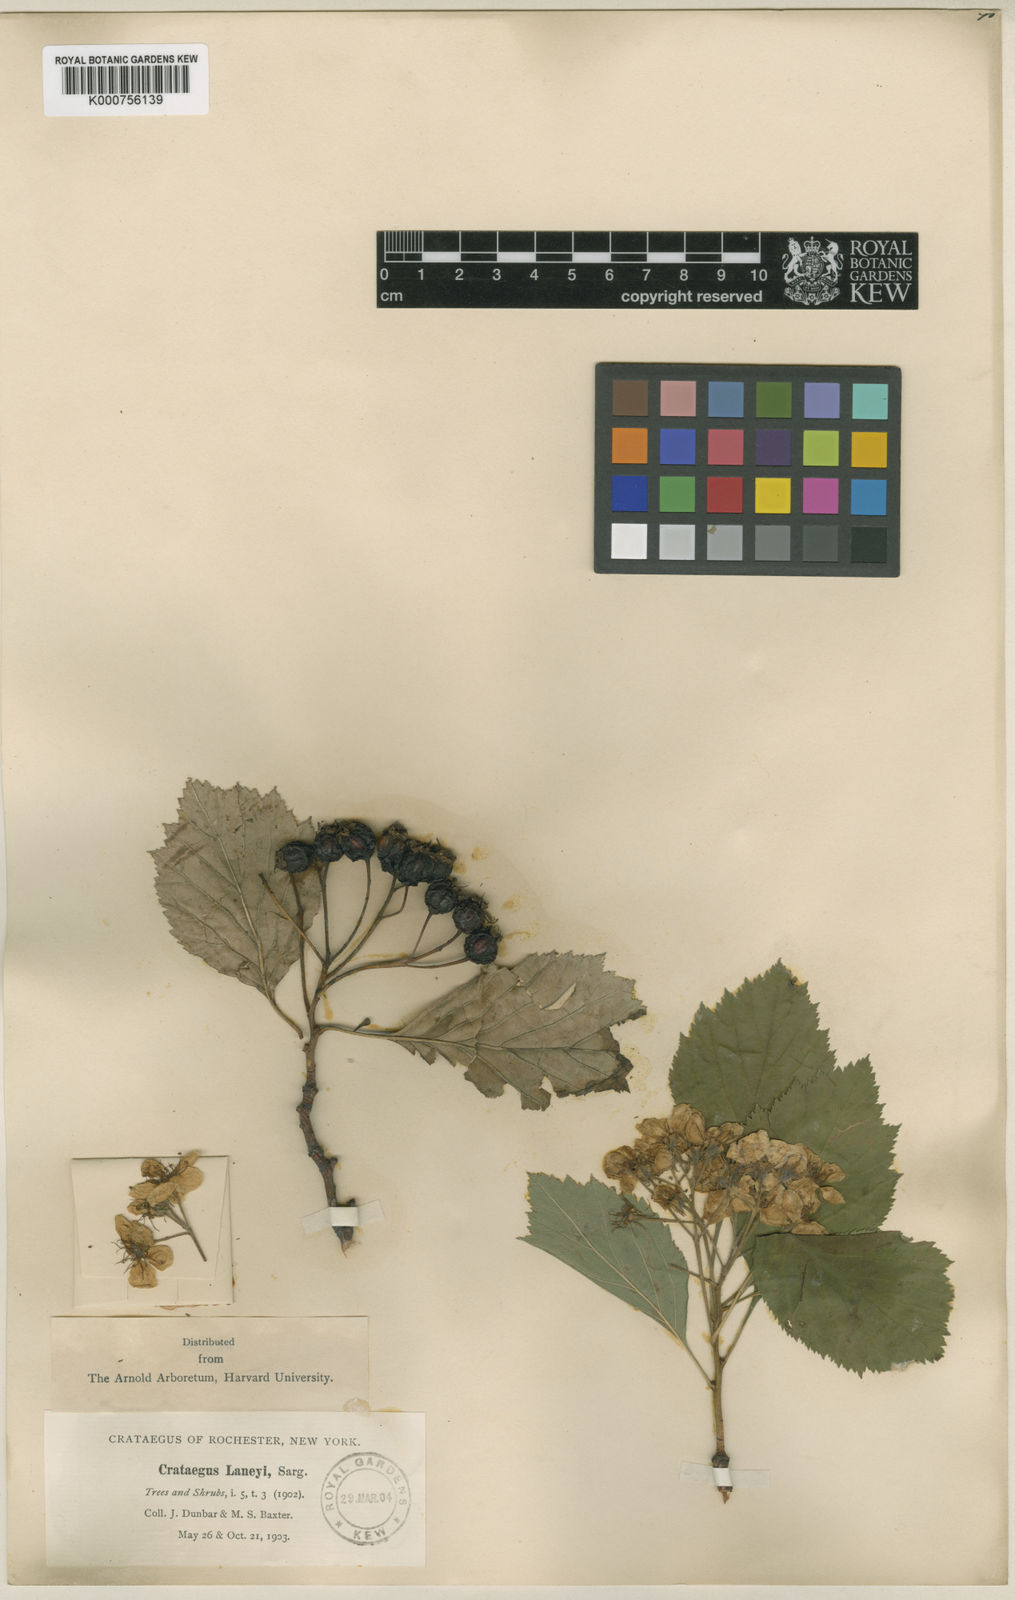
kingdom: Plantae
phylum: Tracheophyta
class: Magnoliopsida
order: Rosales
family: Rosaceae
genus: Crataegus
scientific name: Crataegus laneyi
